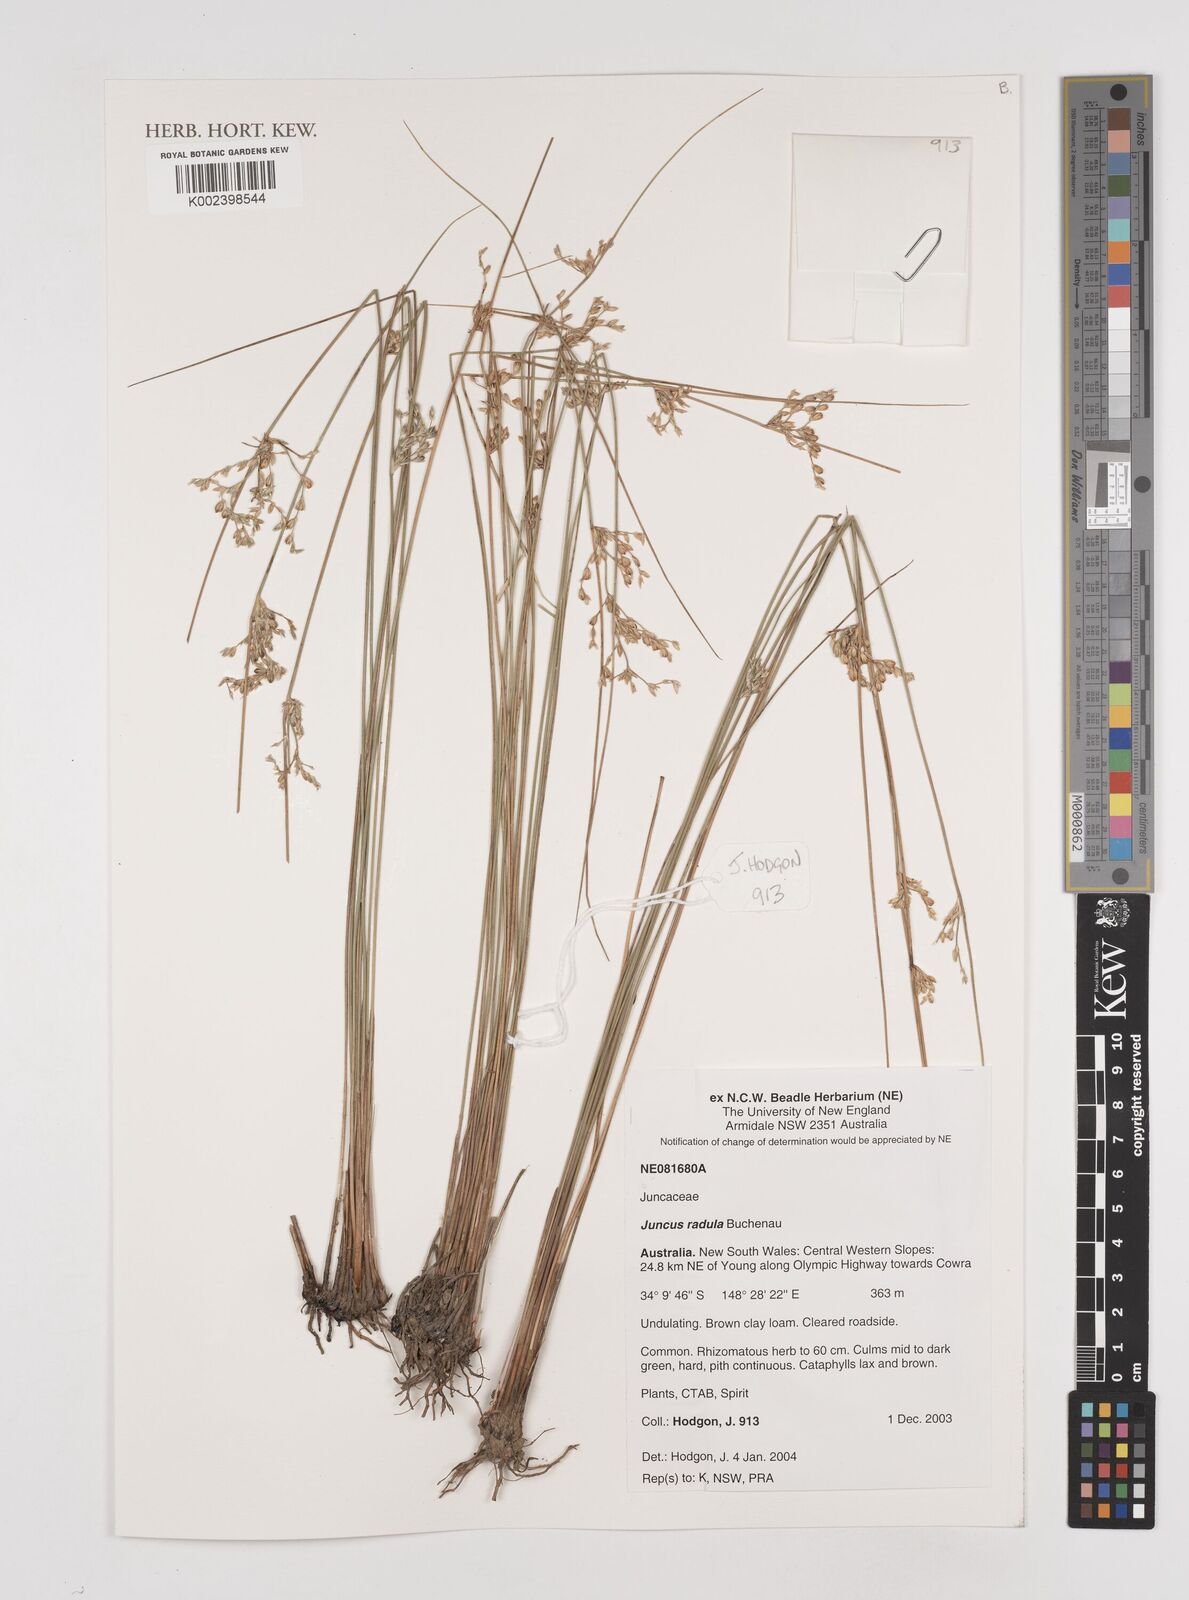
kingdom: Plantae
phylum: Tracheophyta
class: Liliopsida
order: Poales
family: Juncaceae
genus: Juncus
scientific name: Juncus radula
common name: Hoary rush
